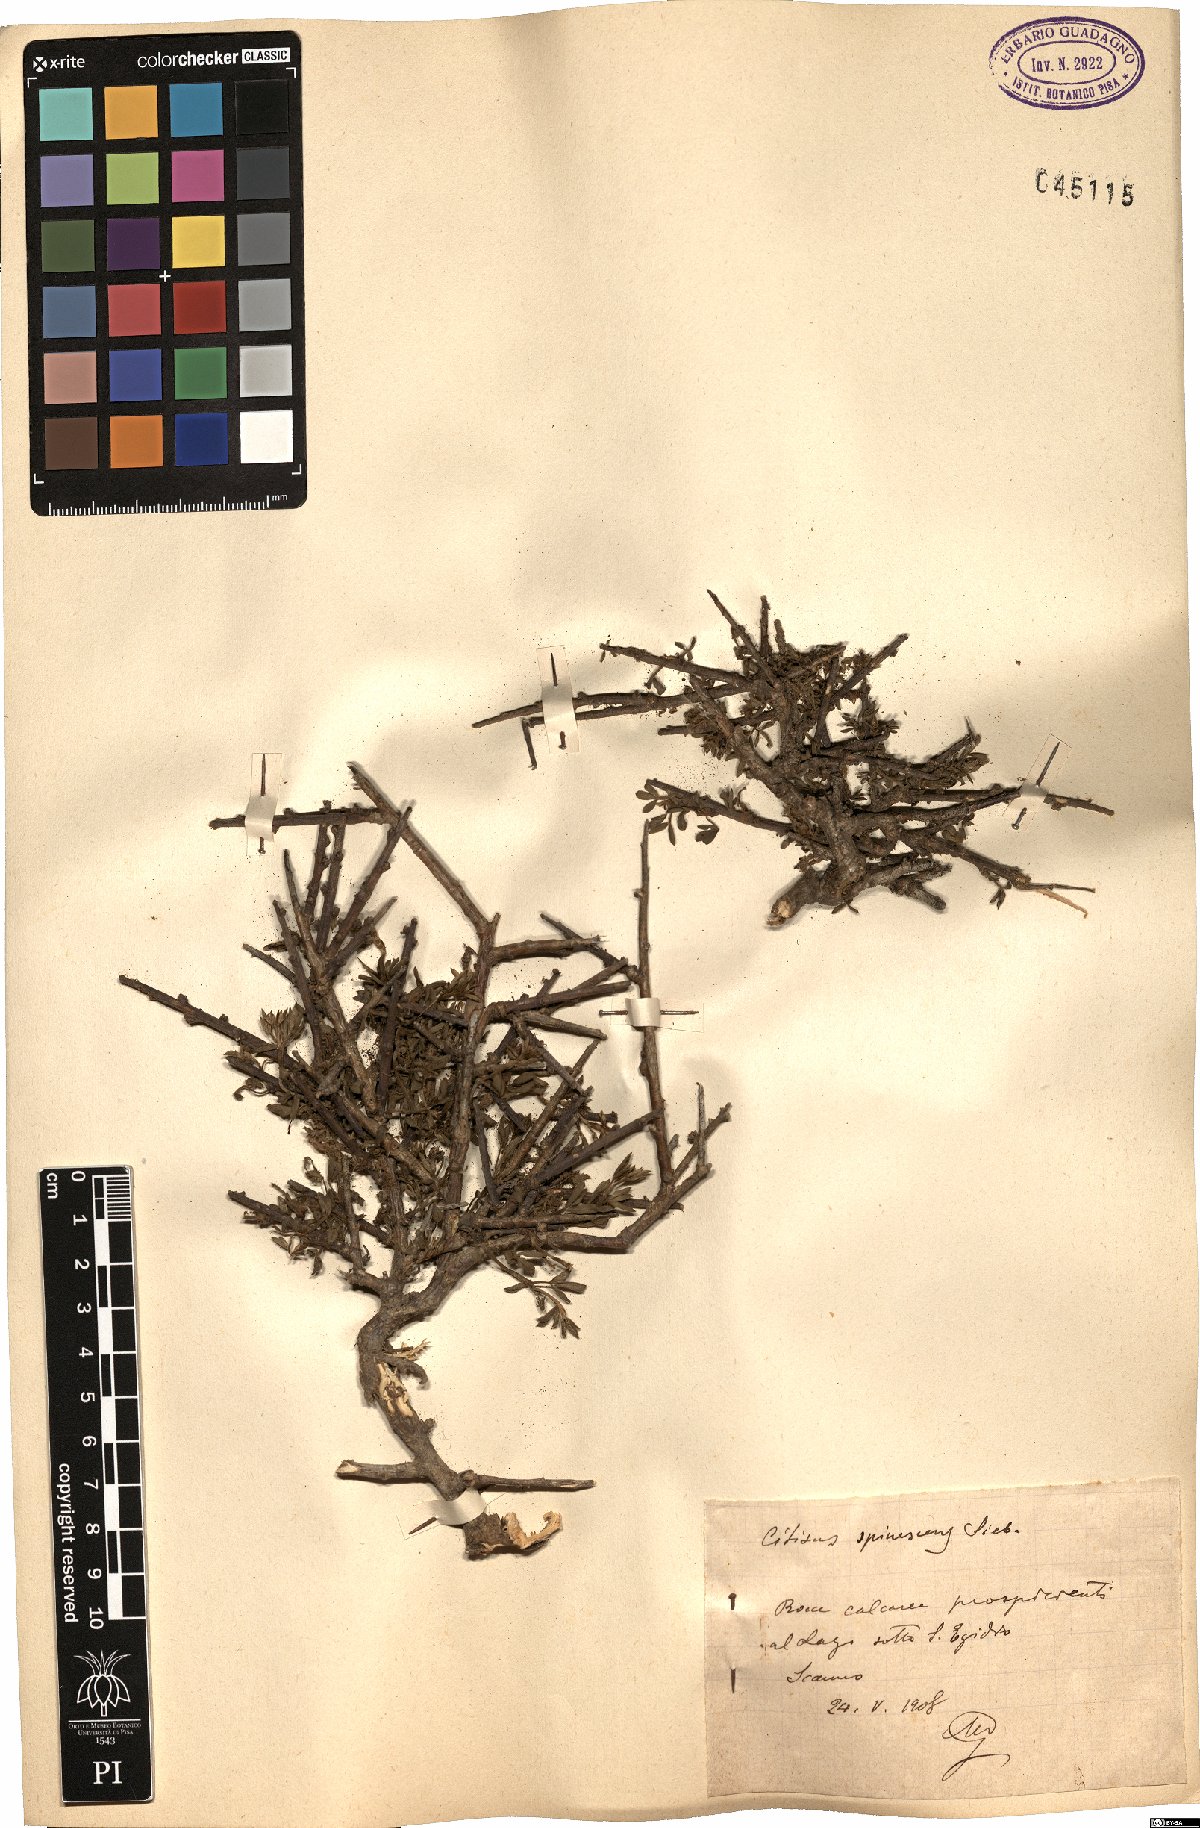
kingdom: Plantae
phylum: Tracheophyta
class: Magnoliopsida
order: Fabales
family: Fabaceae
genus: Chamaecytisus
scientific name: Chamaecytisus spinescens
